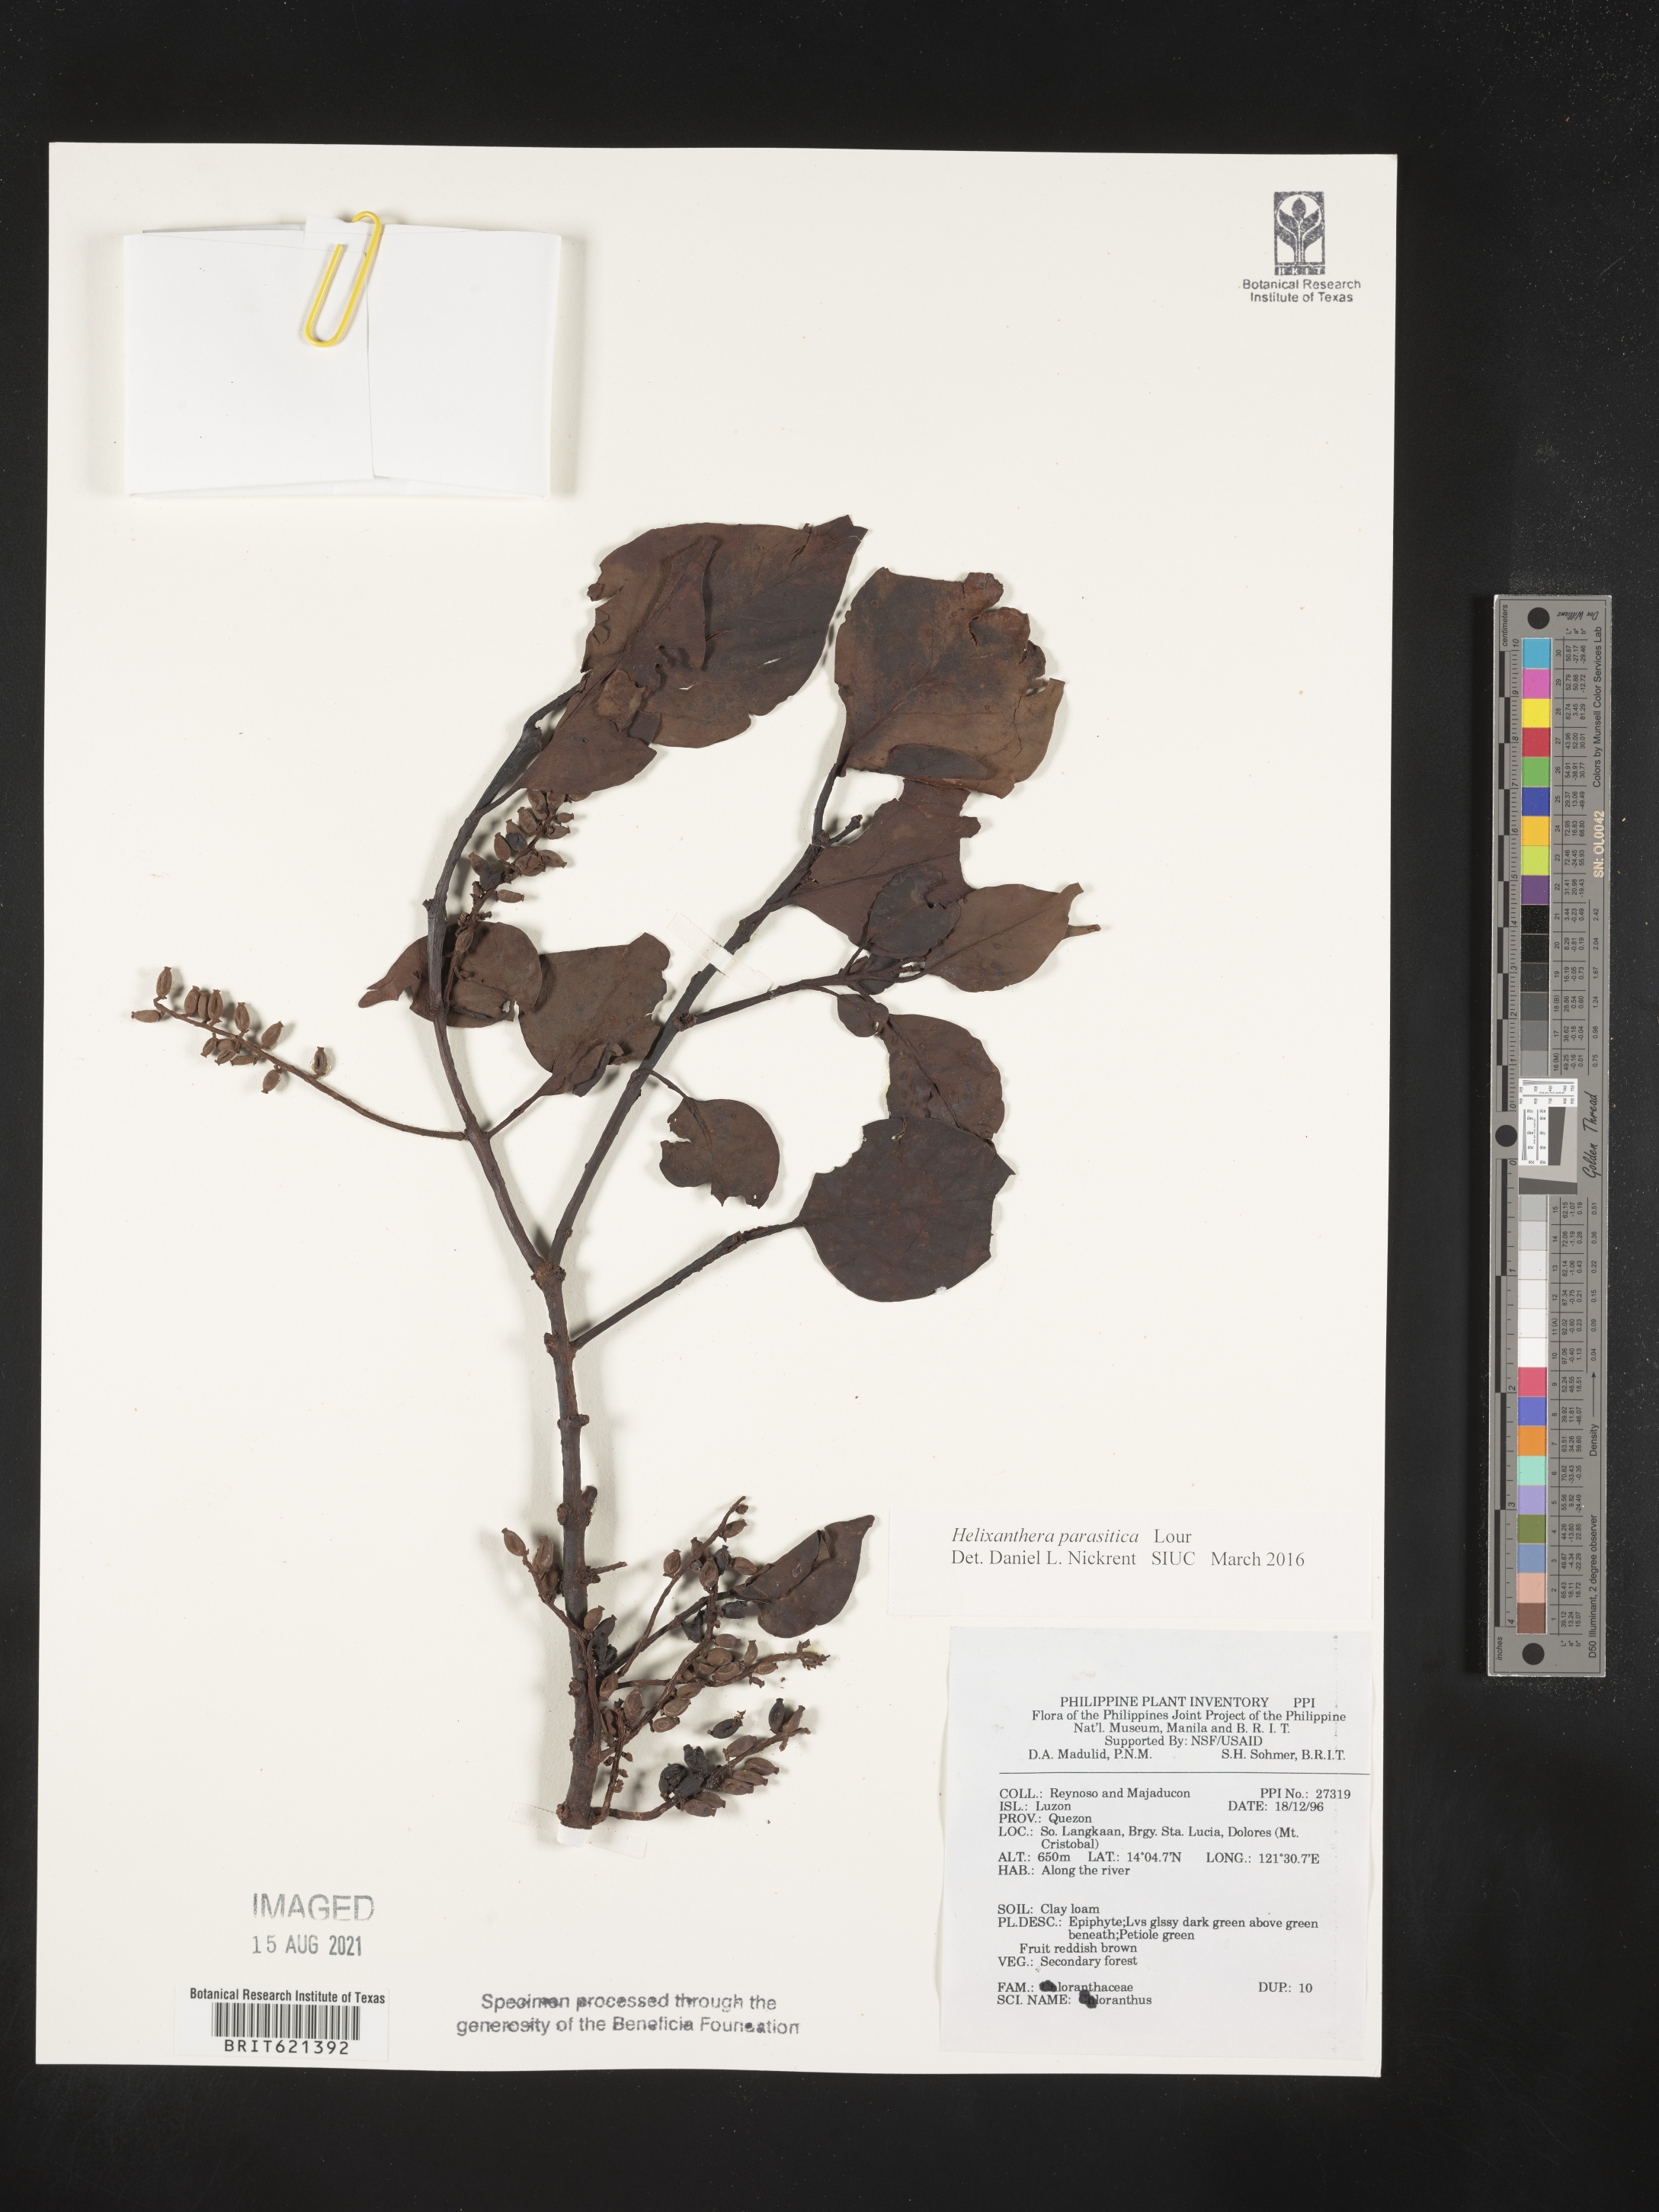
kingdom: Plantae
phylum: Tracheophyta
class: Magnoliopsida
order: Santalales
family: Loranthaceae
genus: Helixanthera
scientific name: Helixanthera parasitica
